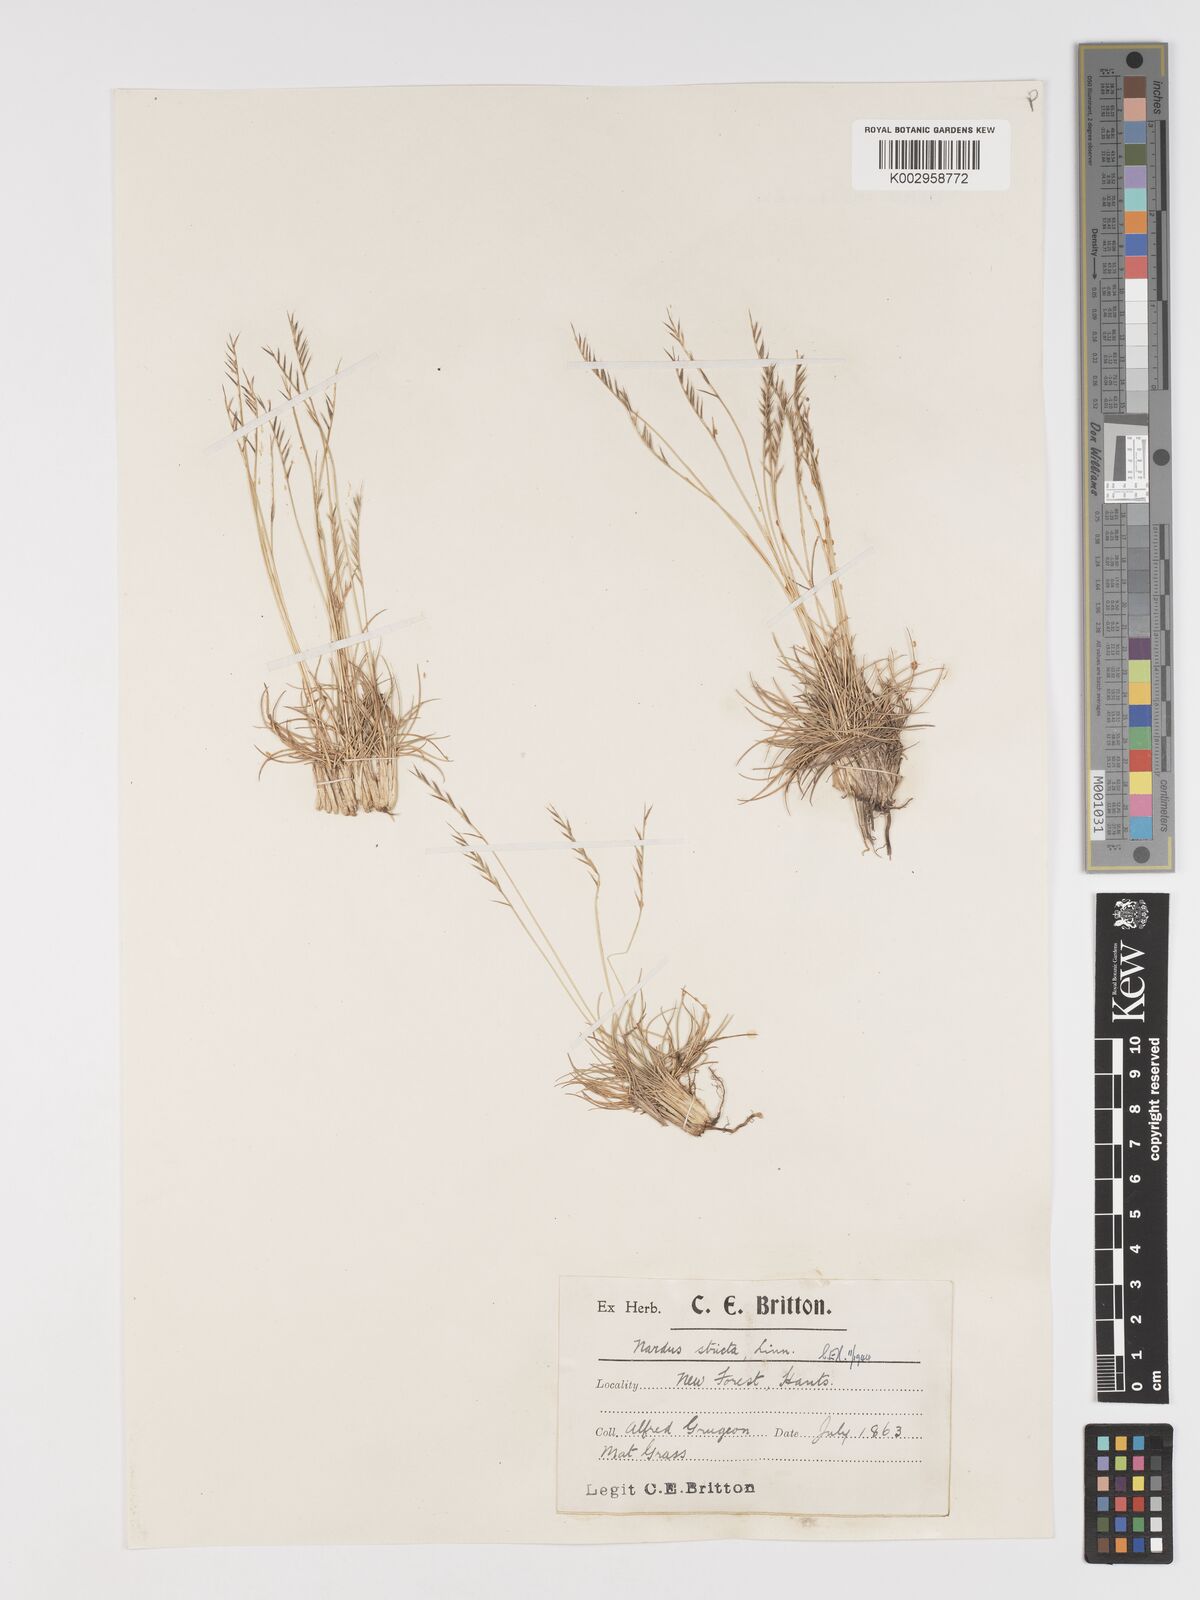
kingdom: Plantae
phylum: Tracheophyta
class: Liliopsida
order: Poales
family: Poaceae
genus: Nardus
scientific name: Nardus stricta
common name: Mat-grass
